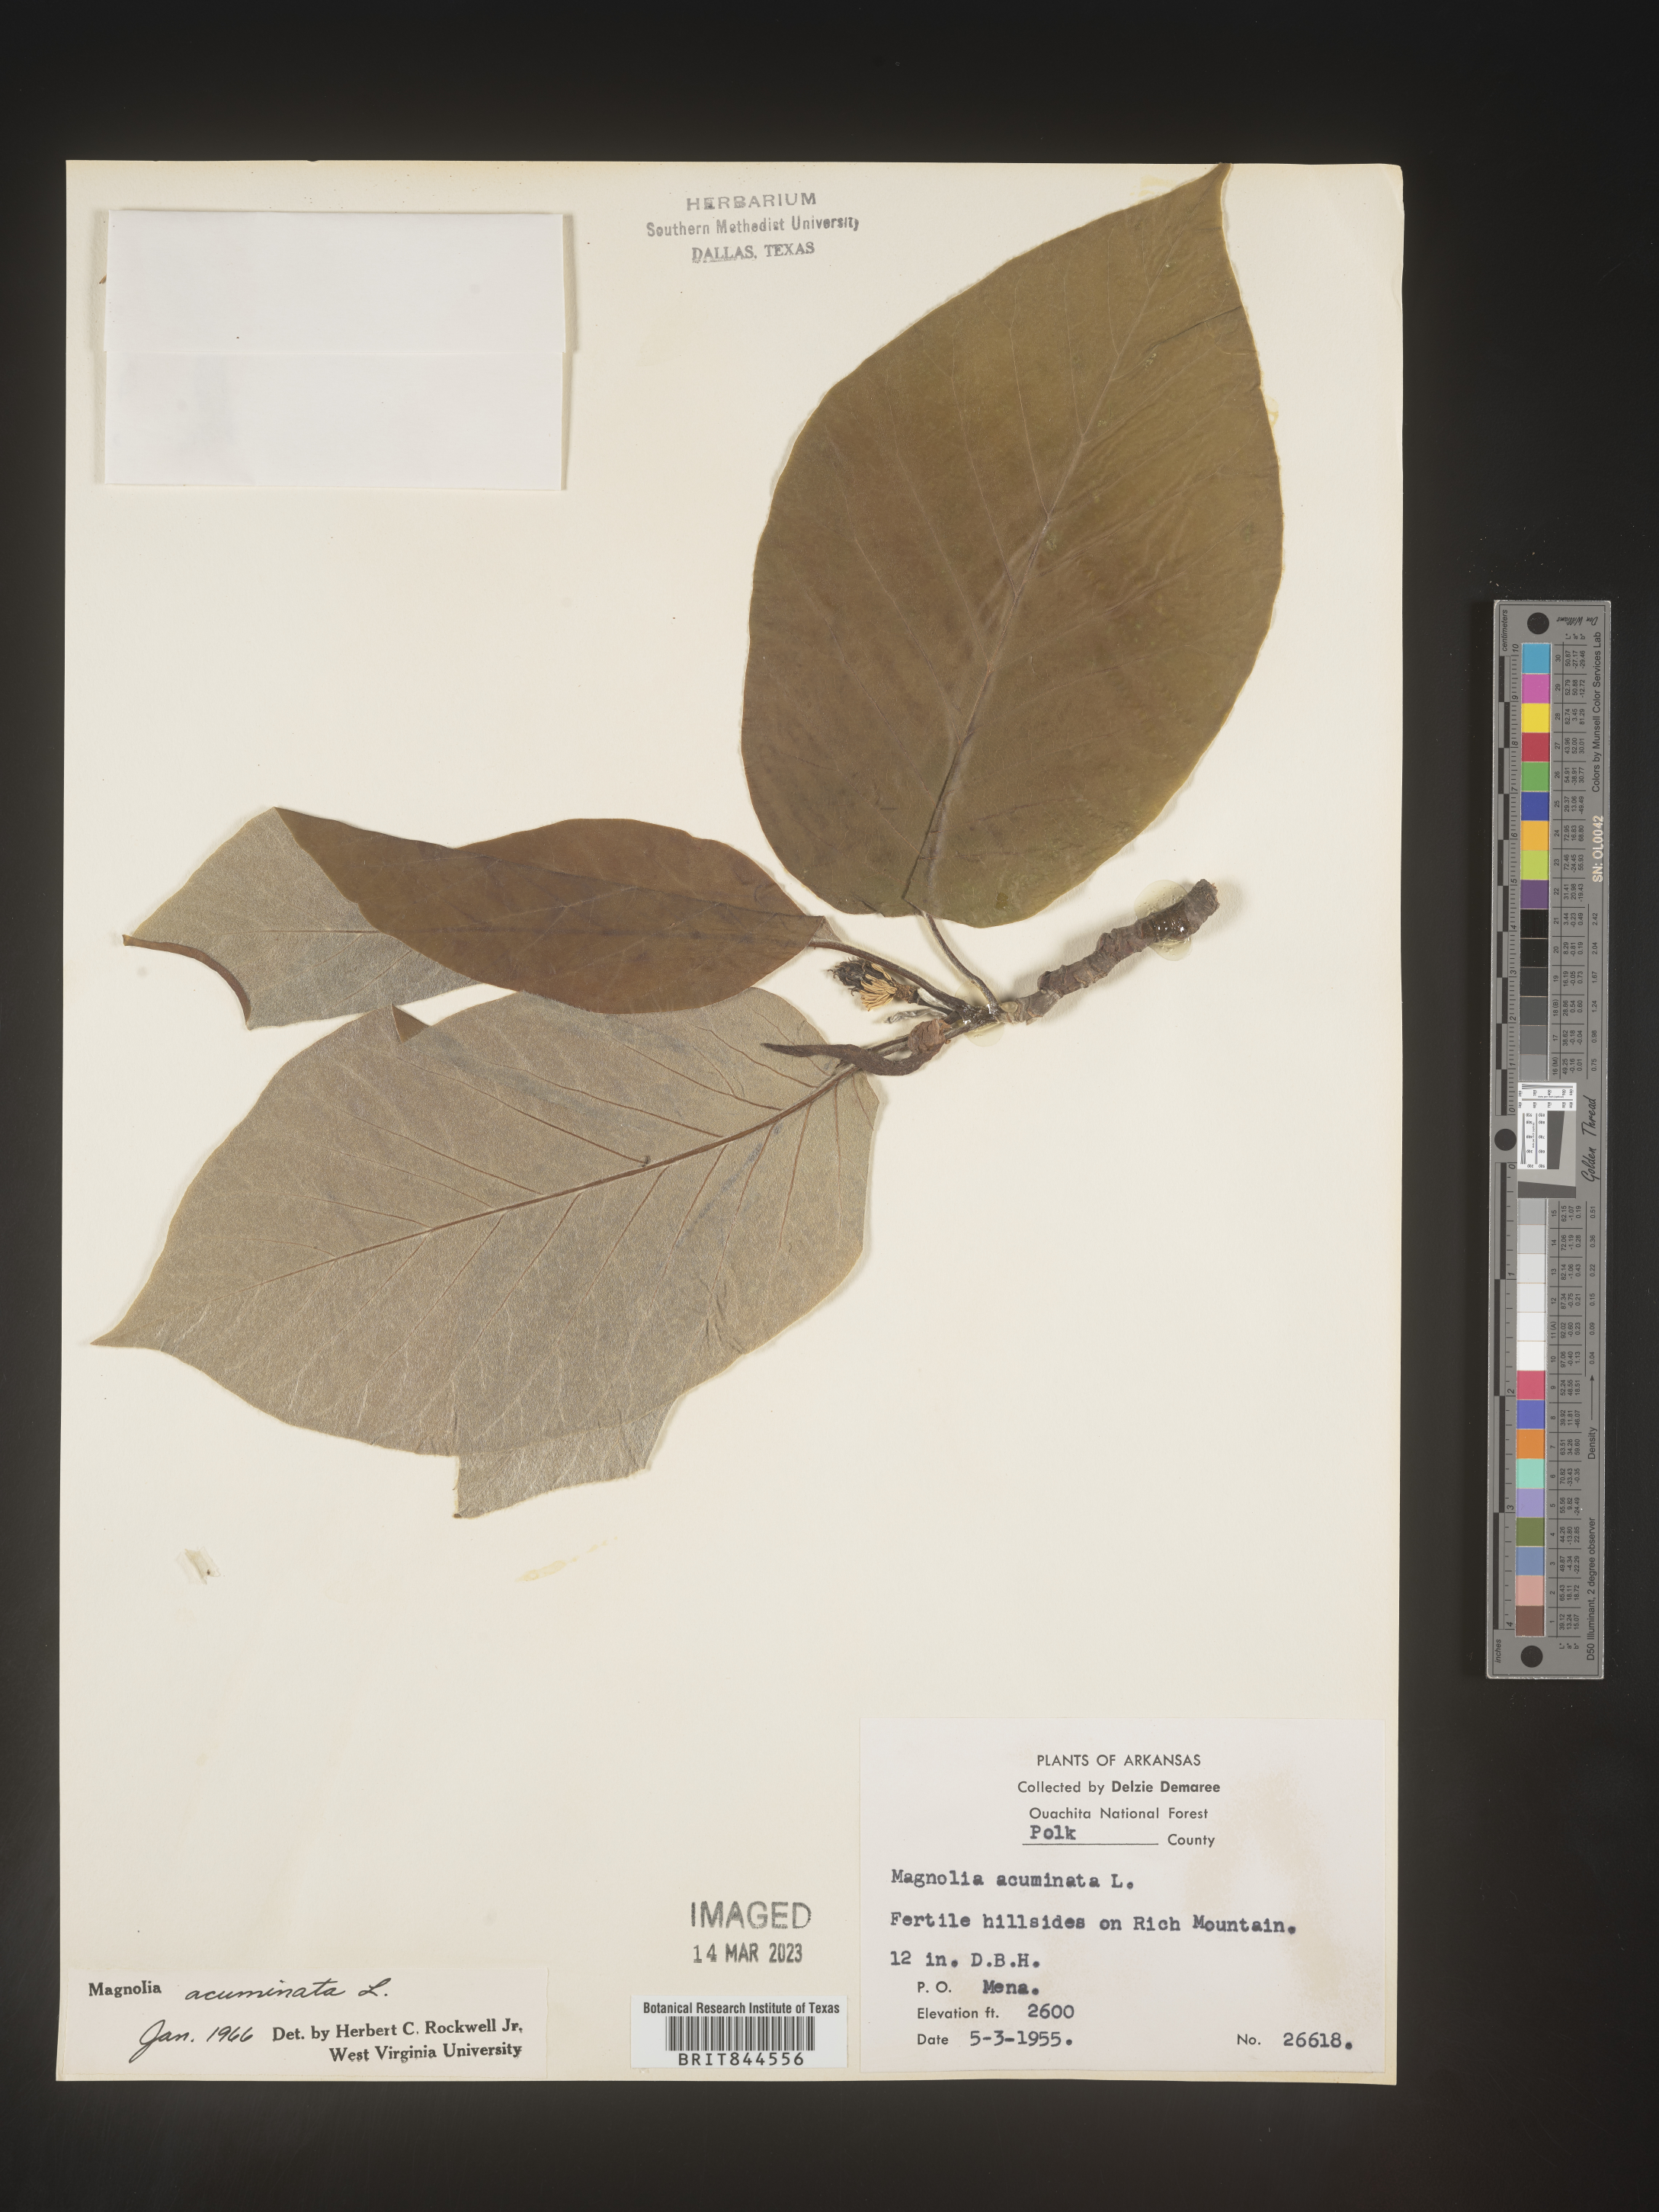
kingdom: Plantae
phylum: Tracheophyta
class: Magnoliopsida
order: Magnoliales
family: Magnoliaceae
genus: Magnolia
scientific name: Magnolia acuminata
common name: Cucumber magnolia
